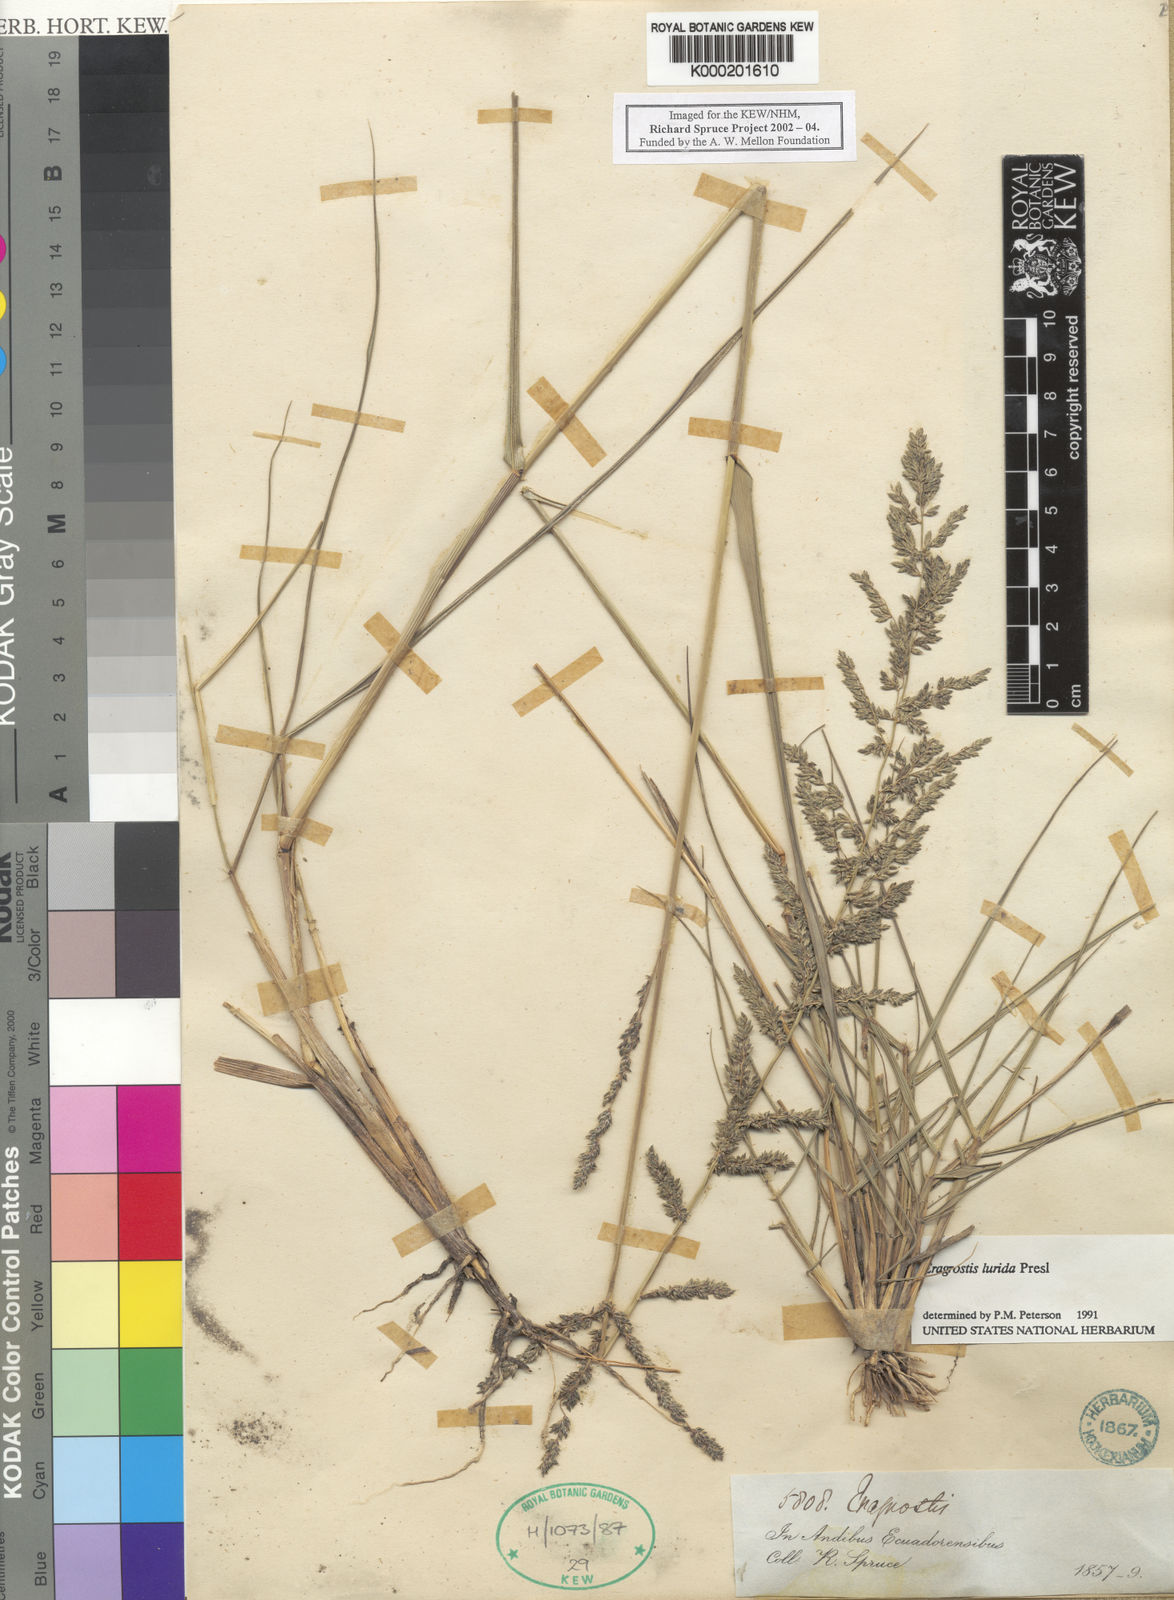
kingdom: Plantae
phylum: Tracheophyta
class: Liliopsida
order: Poales
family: Poaceae
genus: Eragrostis
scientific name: Eragrostis lurida
